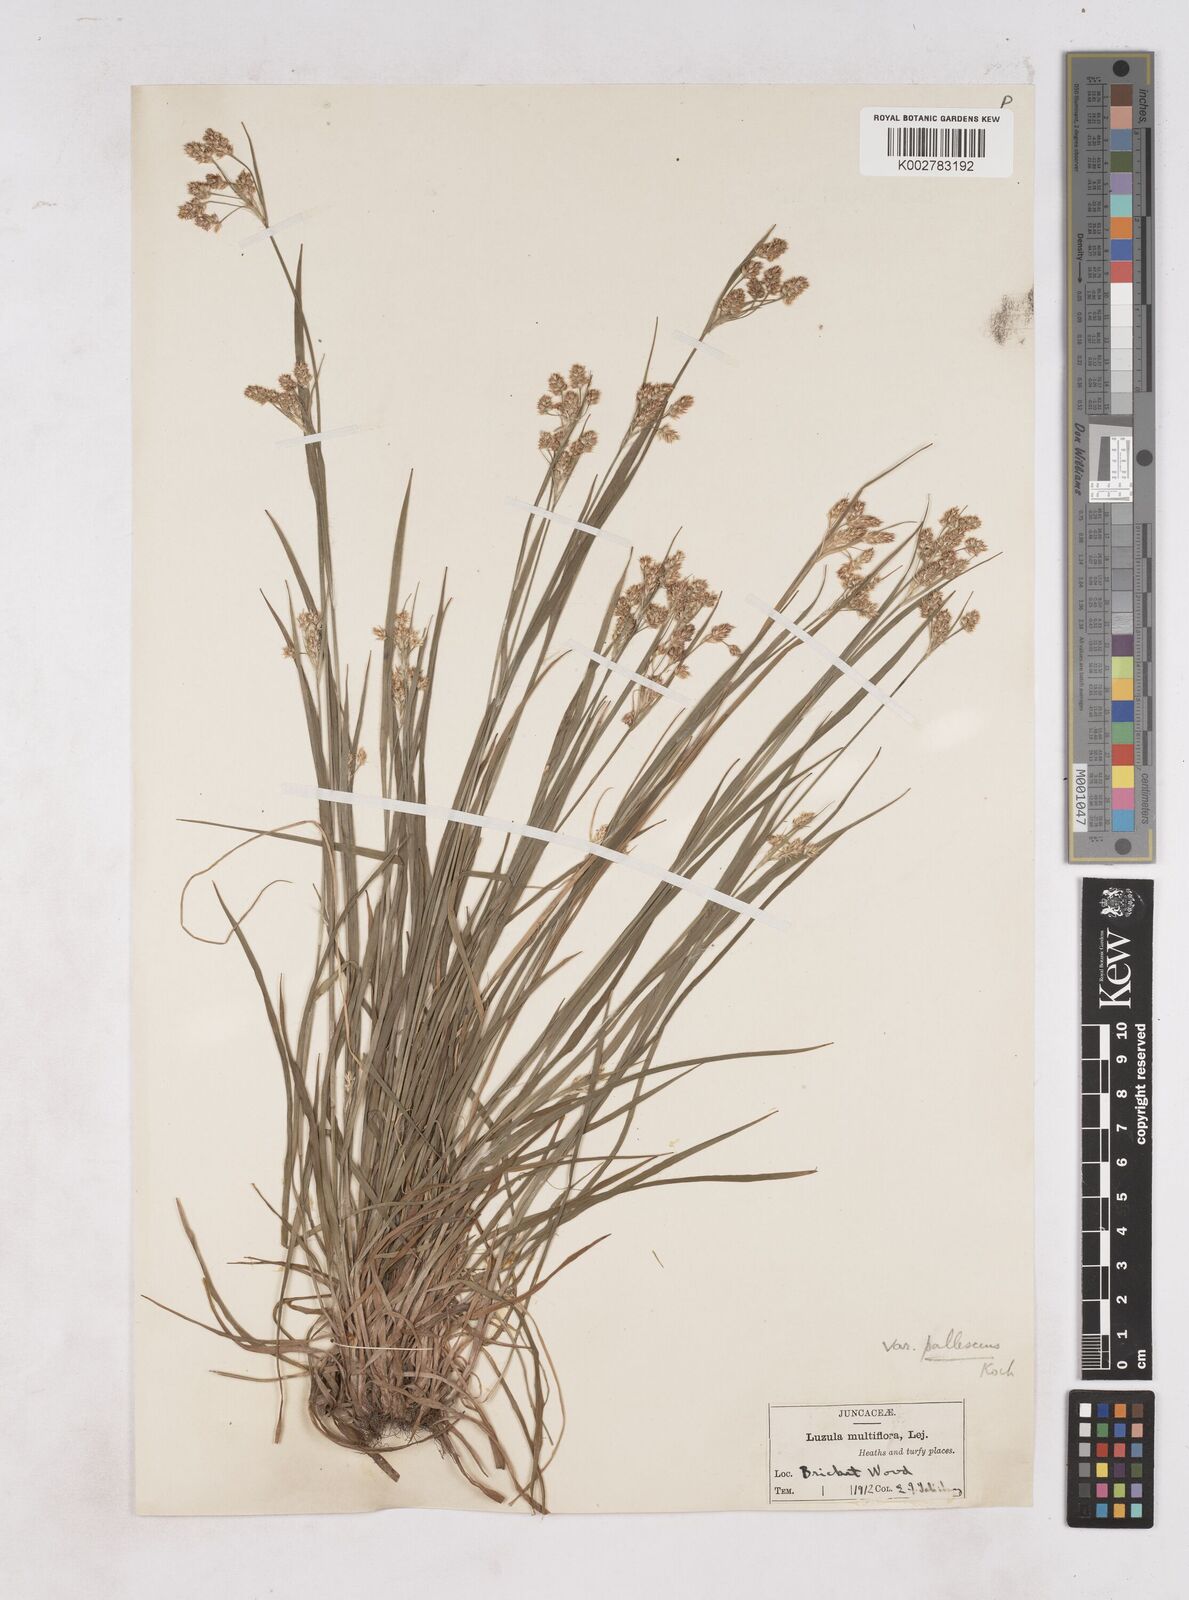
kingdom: Plantae
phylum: Tracheophyta
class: Liliopsida
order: Poales
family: Juncaceae
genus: Luzula
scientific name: Luzula pallescens
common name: Fen wood-rush
